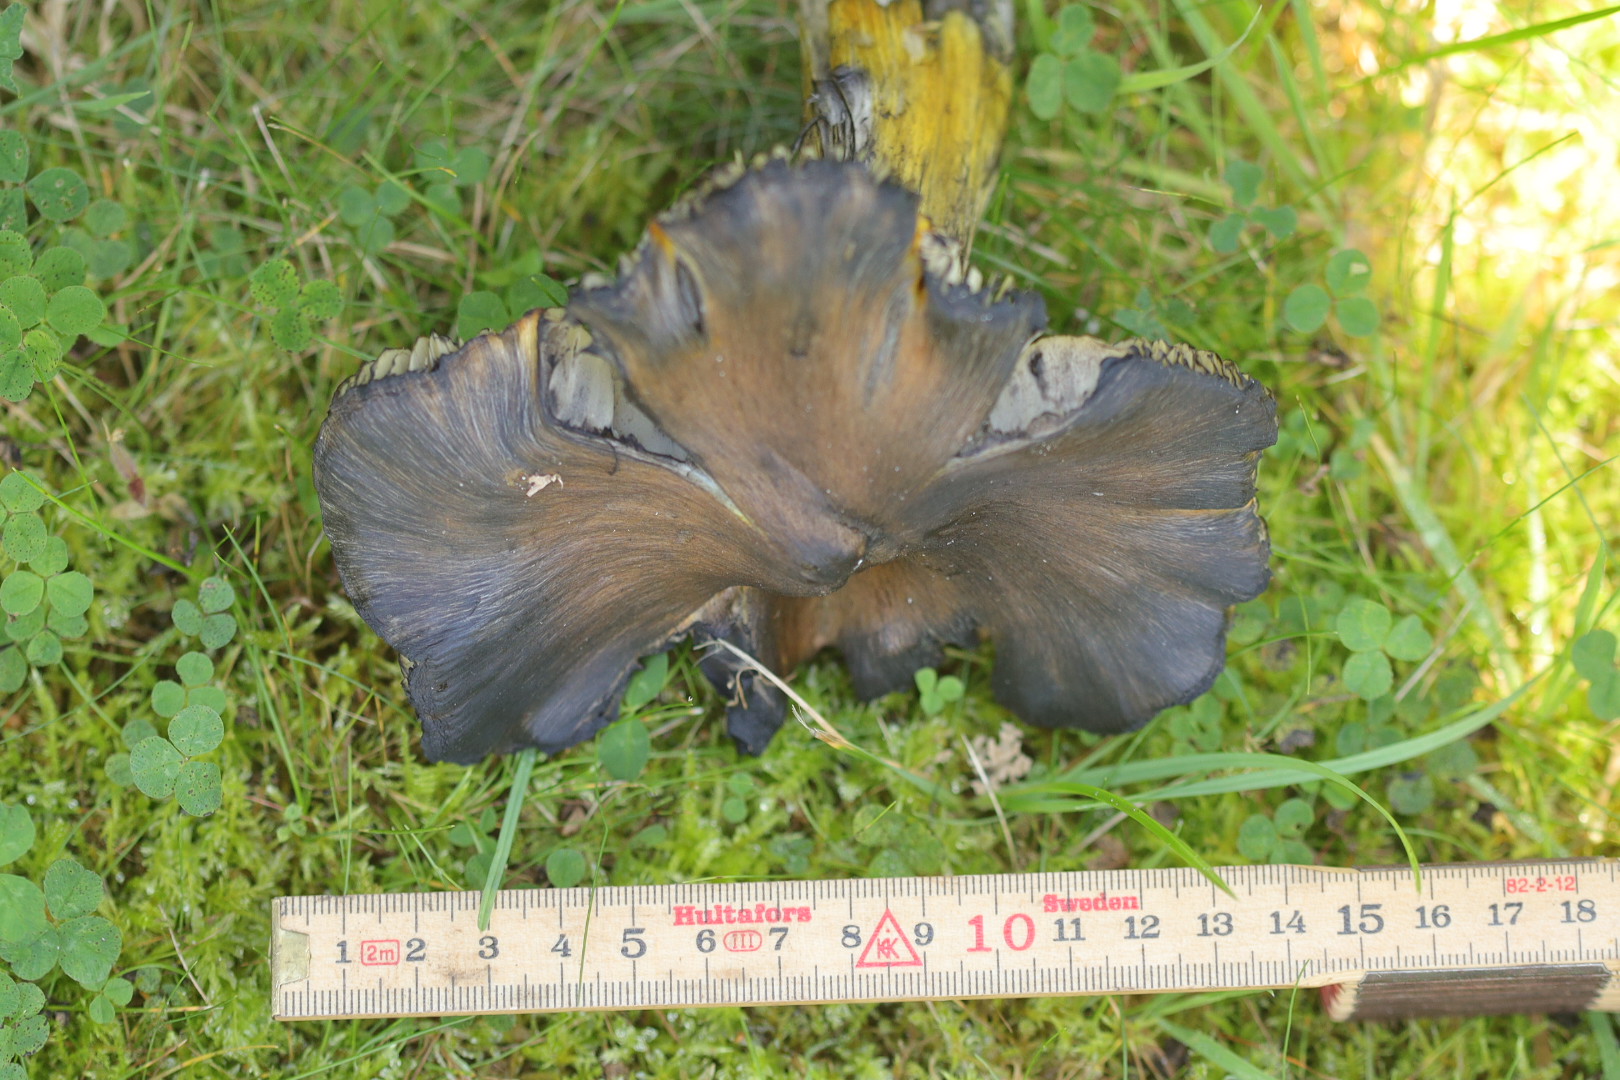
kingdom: Fungi
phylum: Basidiomycota
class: Agaricomycetes
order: Agaricales
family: Hygrophoraceae
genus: Hygrocybe
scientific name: Hygrocybe conica
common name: kegle-vokshat
